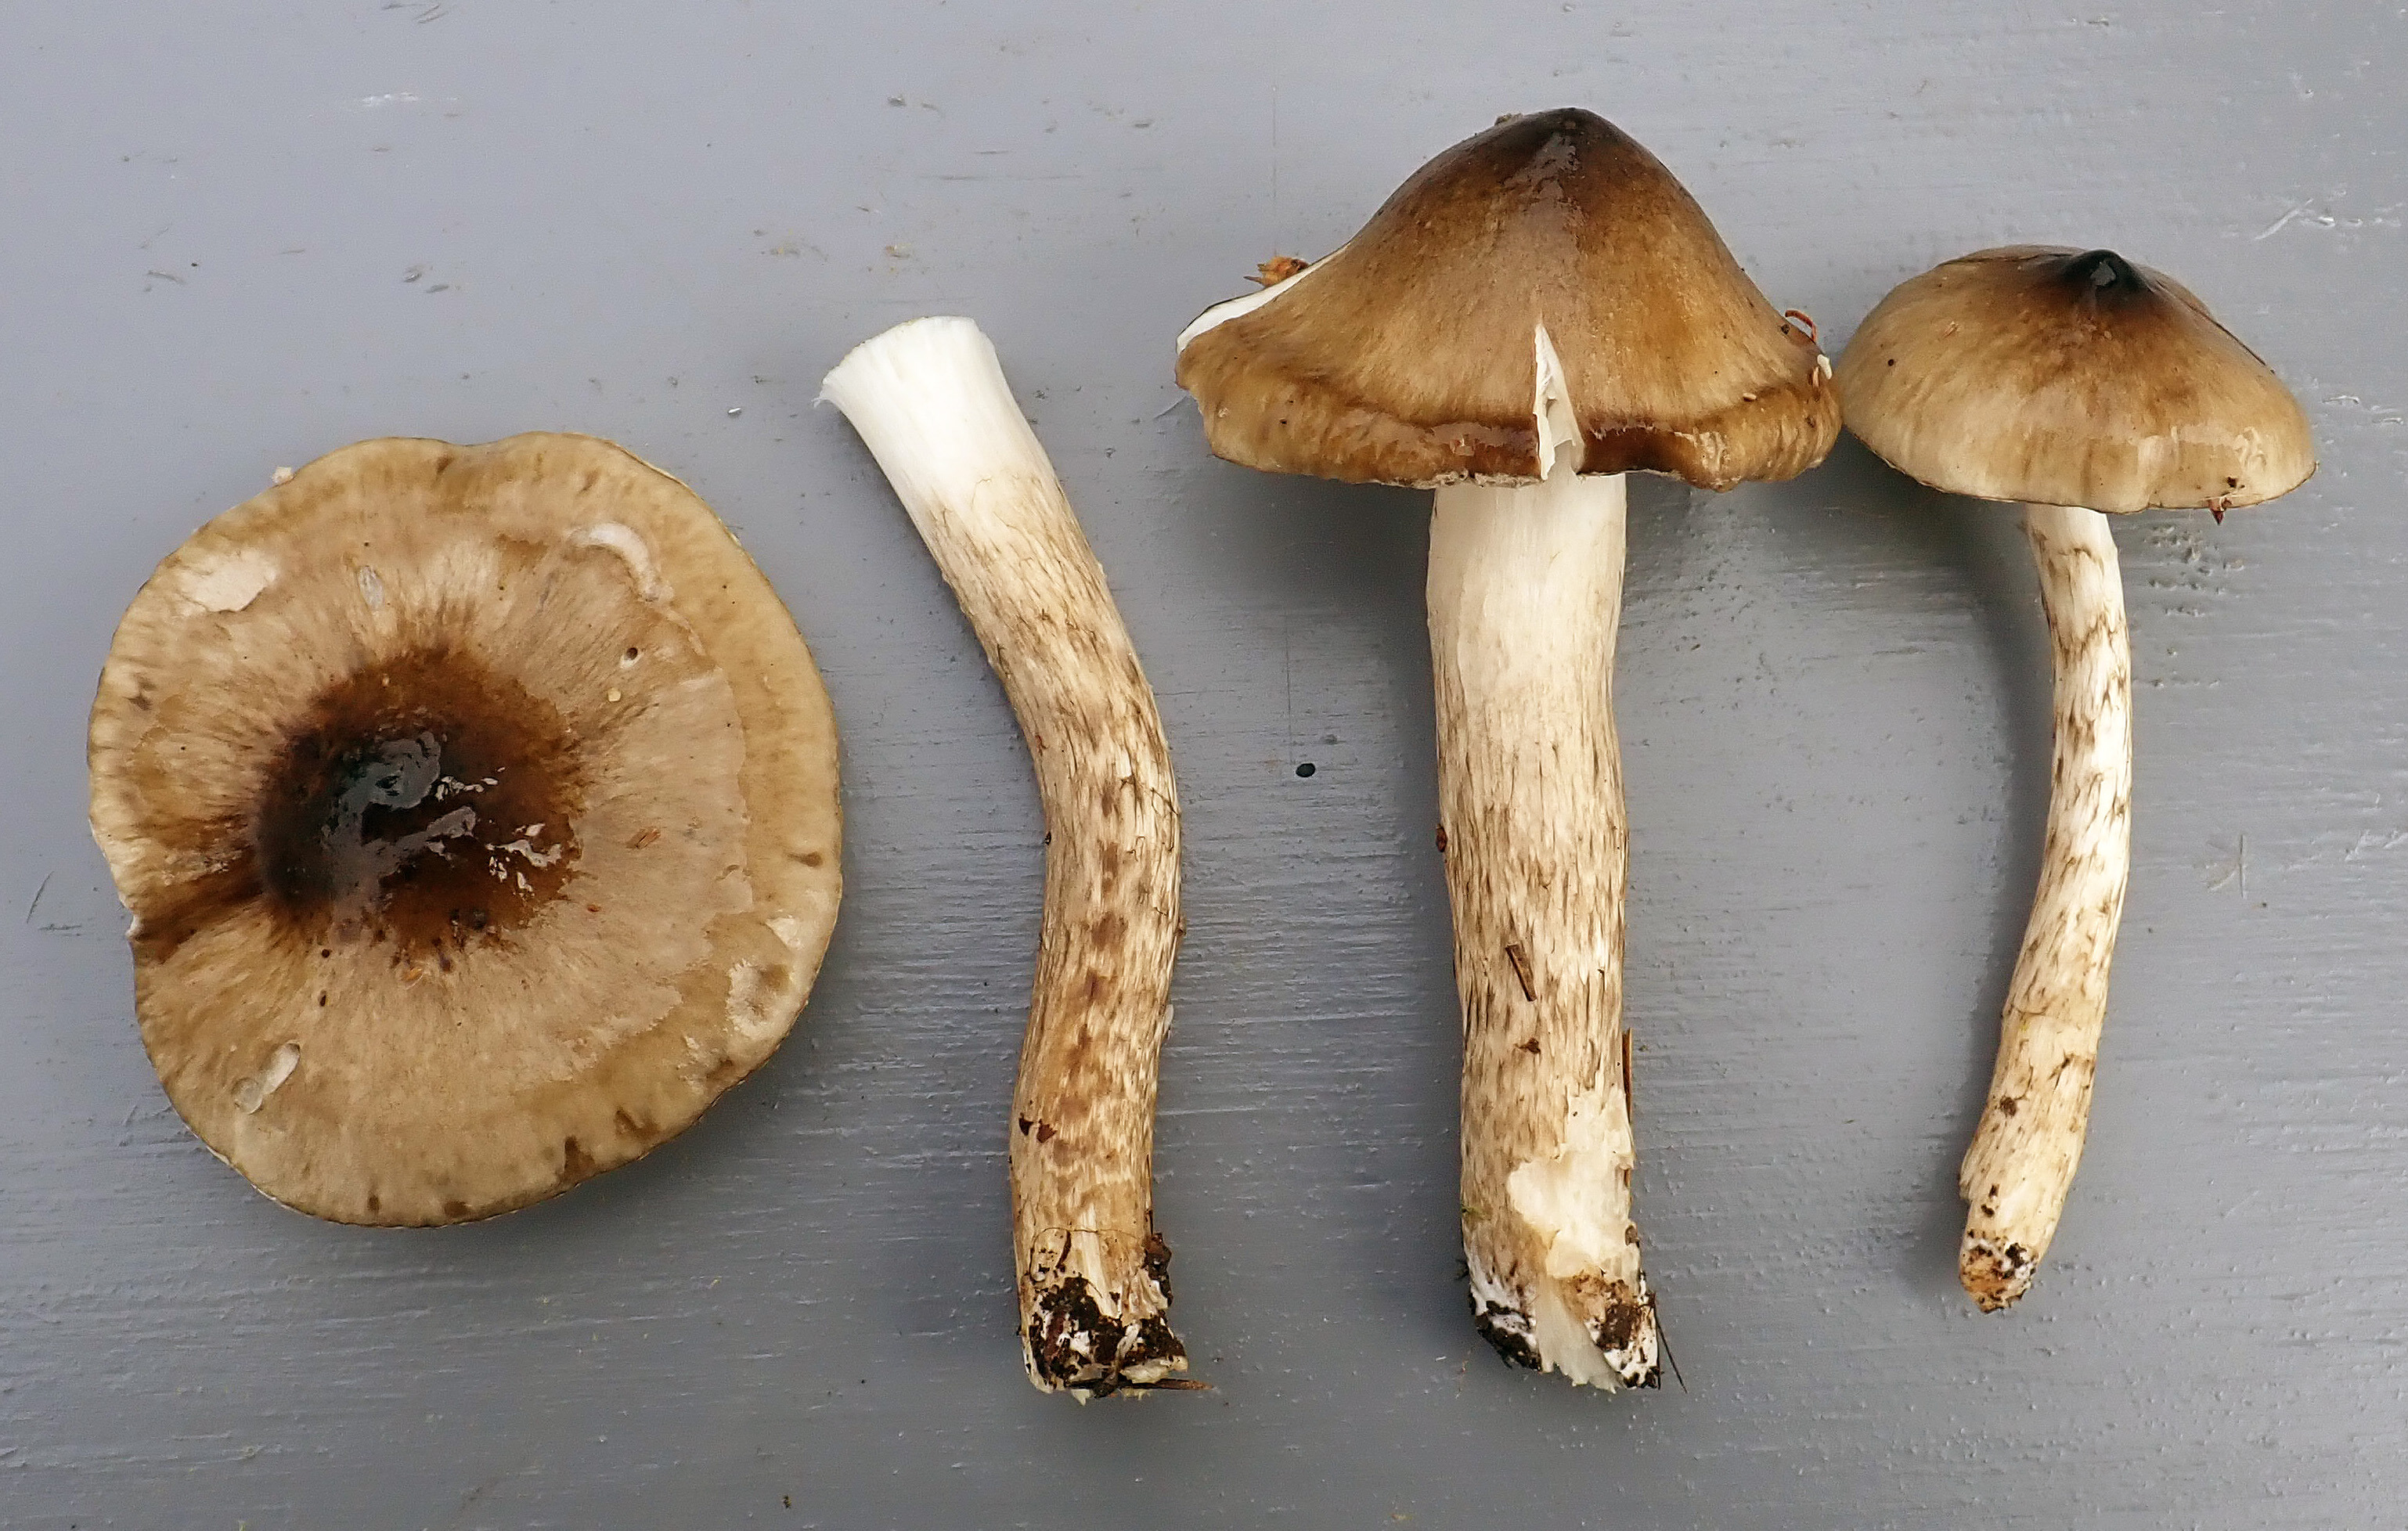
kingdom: Fungi
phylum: Basidiomycota
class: Agaricomycetes
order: Agaricales
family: Hygrophoraceae
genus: Hygrophorus
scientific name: Hygrophorus korhonenii
